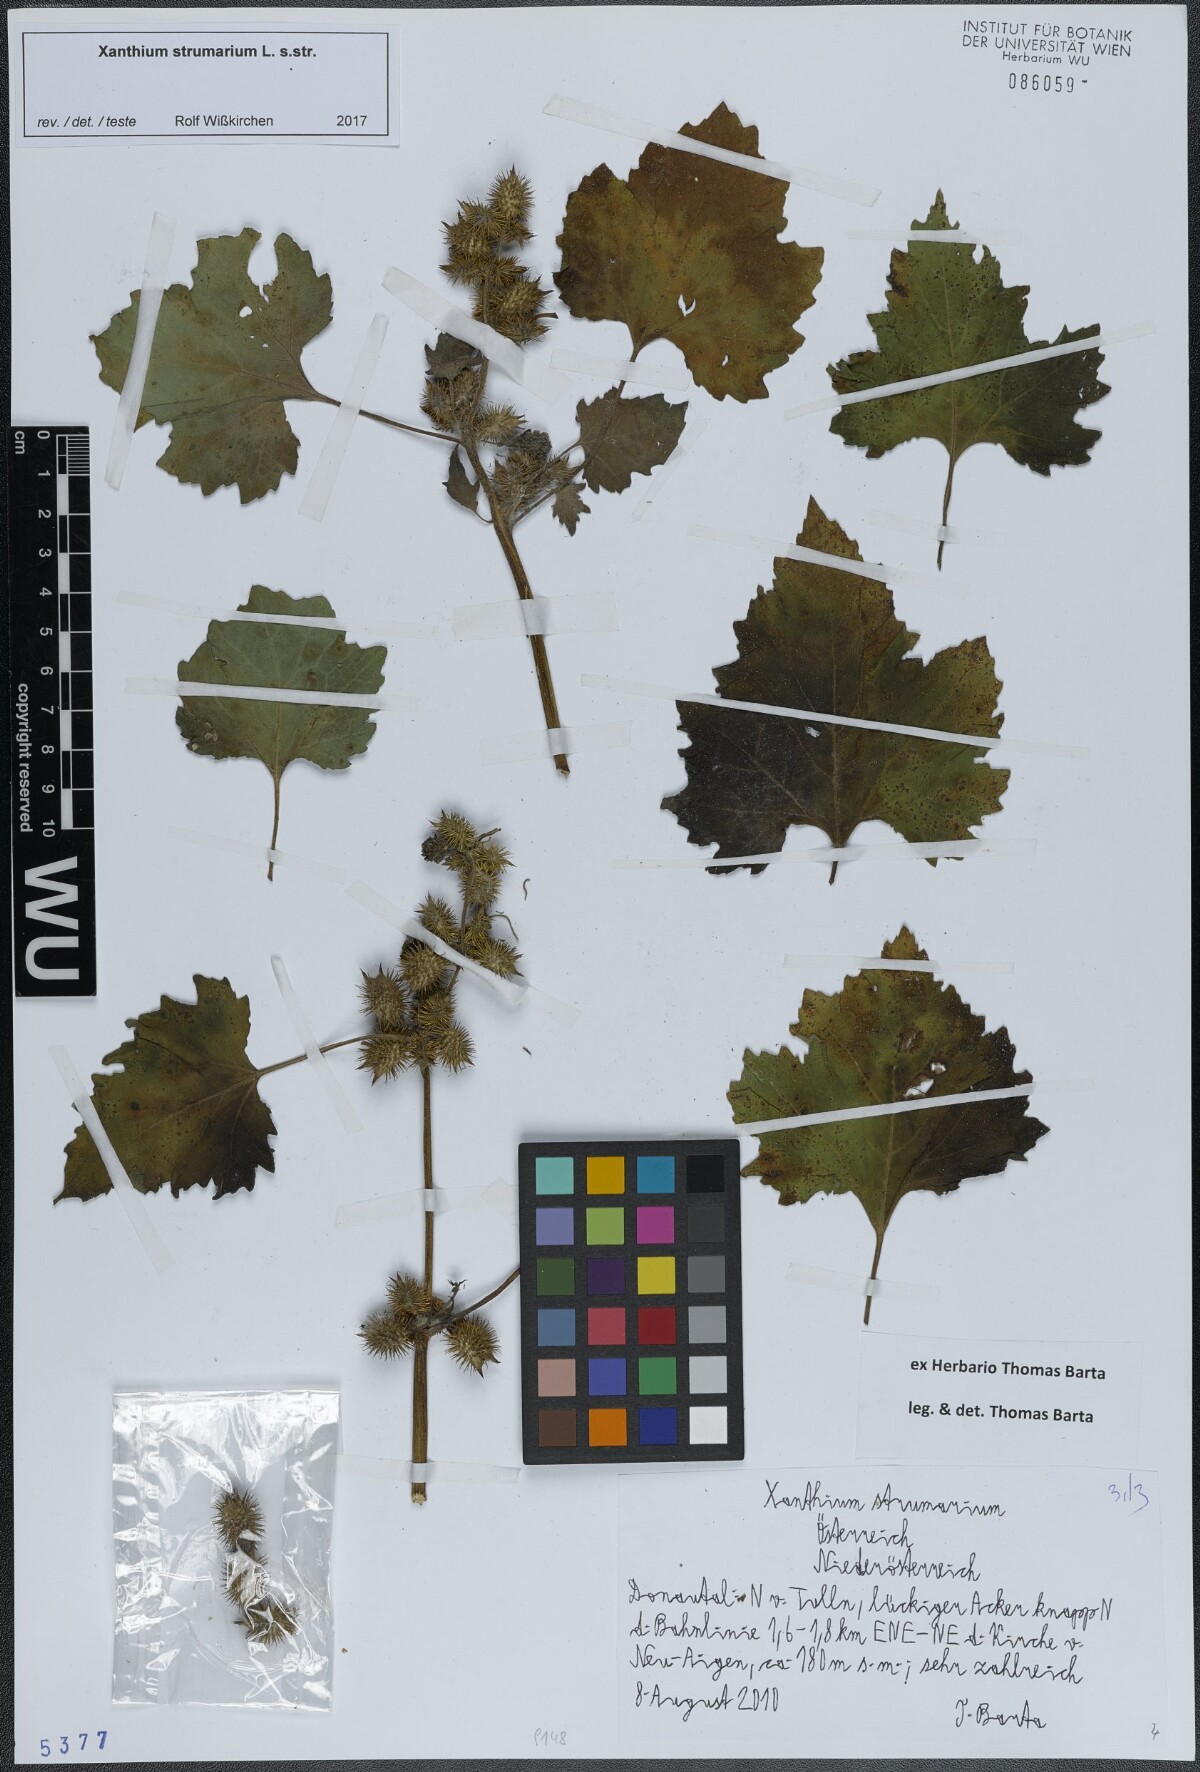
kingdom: Plantae
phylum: Tracheophyta
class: Magnoliopsida
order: Asterales
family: Asteraceae
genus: Xanthium
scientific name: Xanthium strumarium
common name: Rough cocklebur
